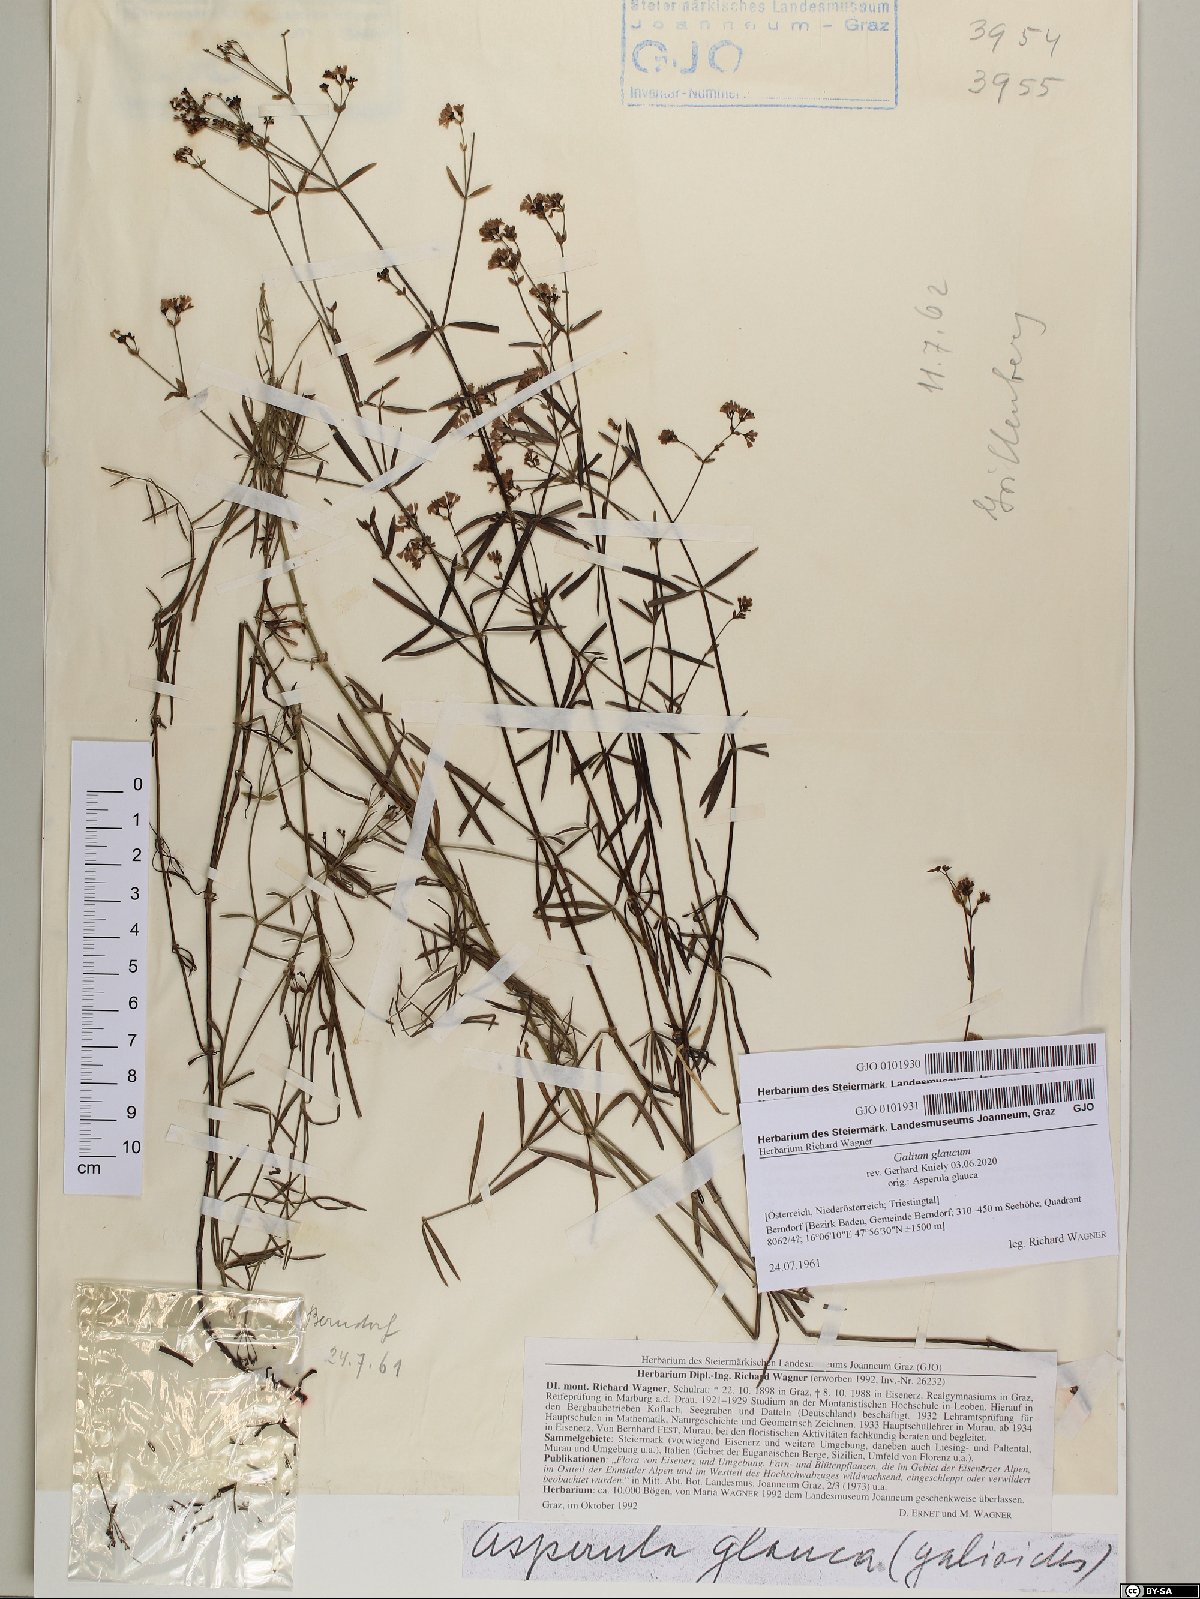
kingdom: Plantae
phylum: Tracheophyta
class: Magnoliopsida
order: Gentianales
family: Rubiaceae
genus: Galium
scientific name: Galium glaucum
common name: Waxy bedstraw
